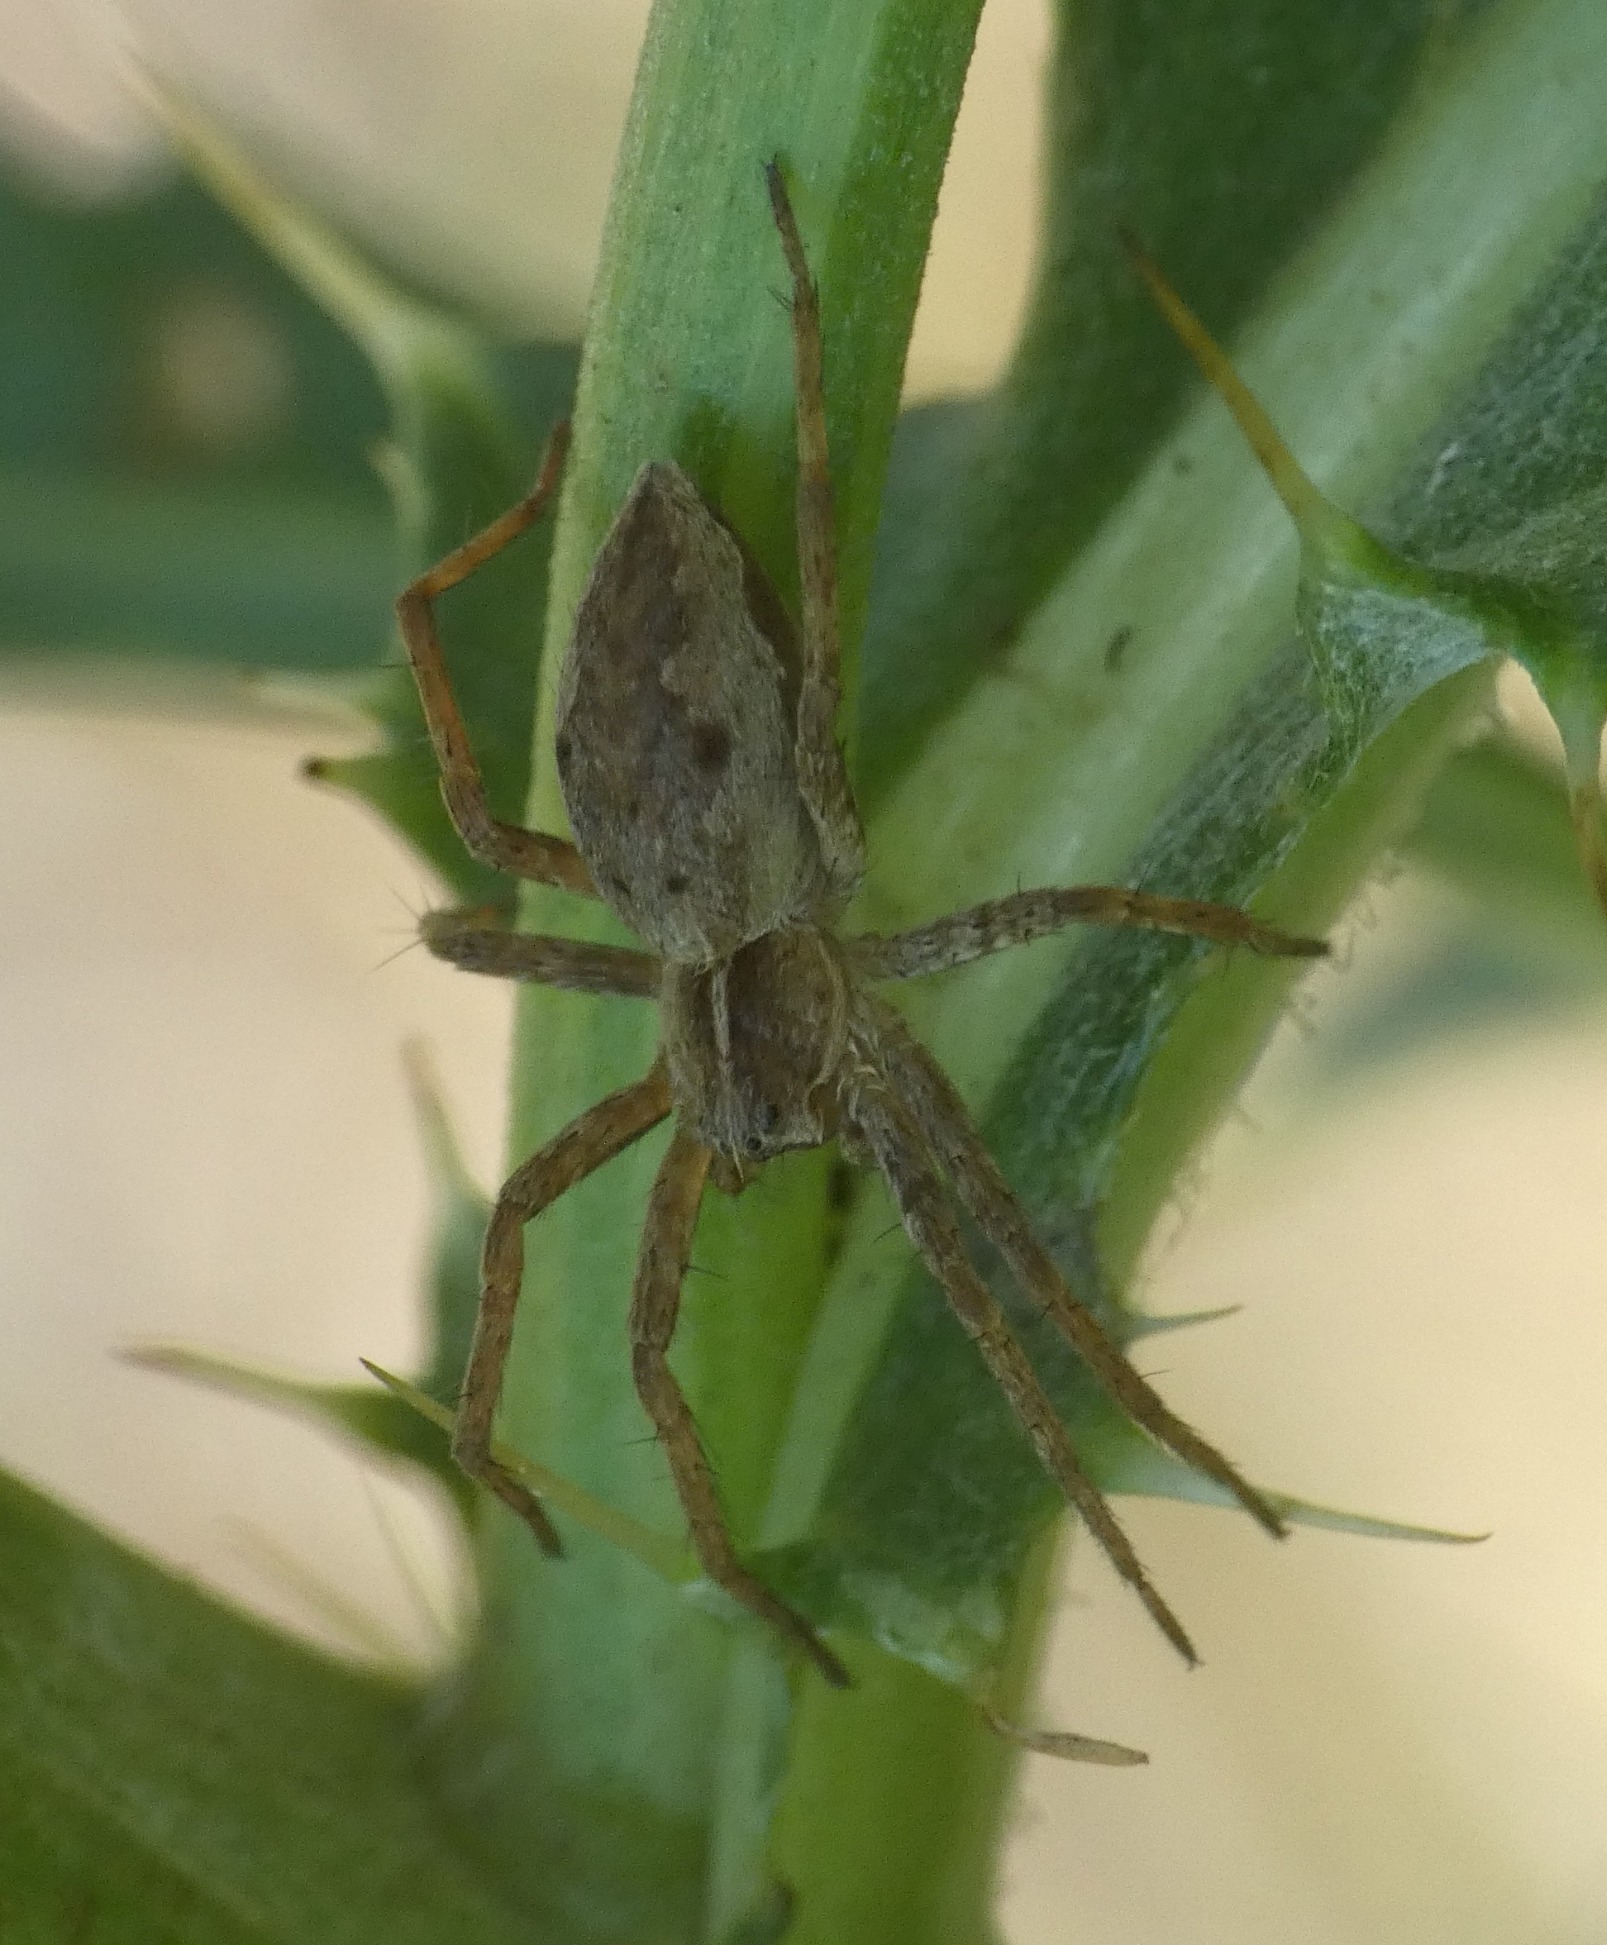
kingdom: Animalia
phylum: Arthropoda
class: Arachnida
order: Araneae
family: Pisauridae
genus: Pisaura
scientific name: Pisaura mirabilis
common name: Almindelig rovedderkop
